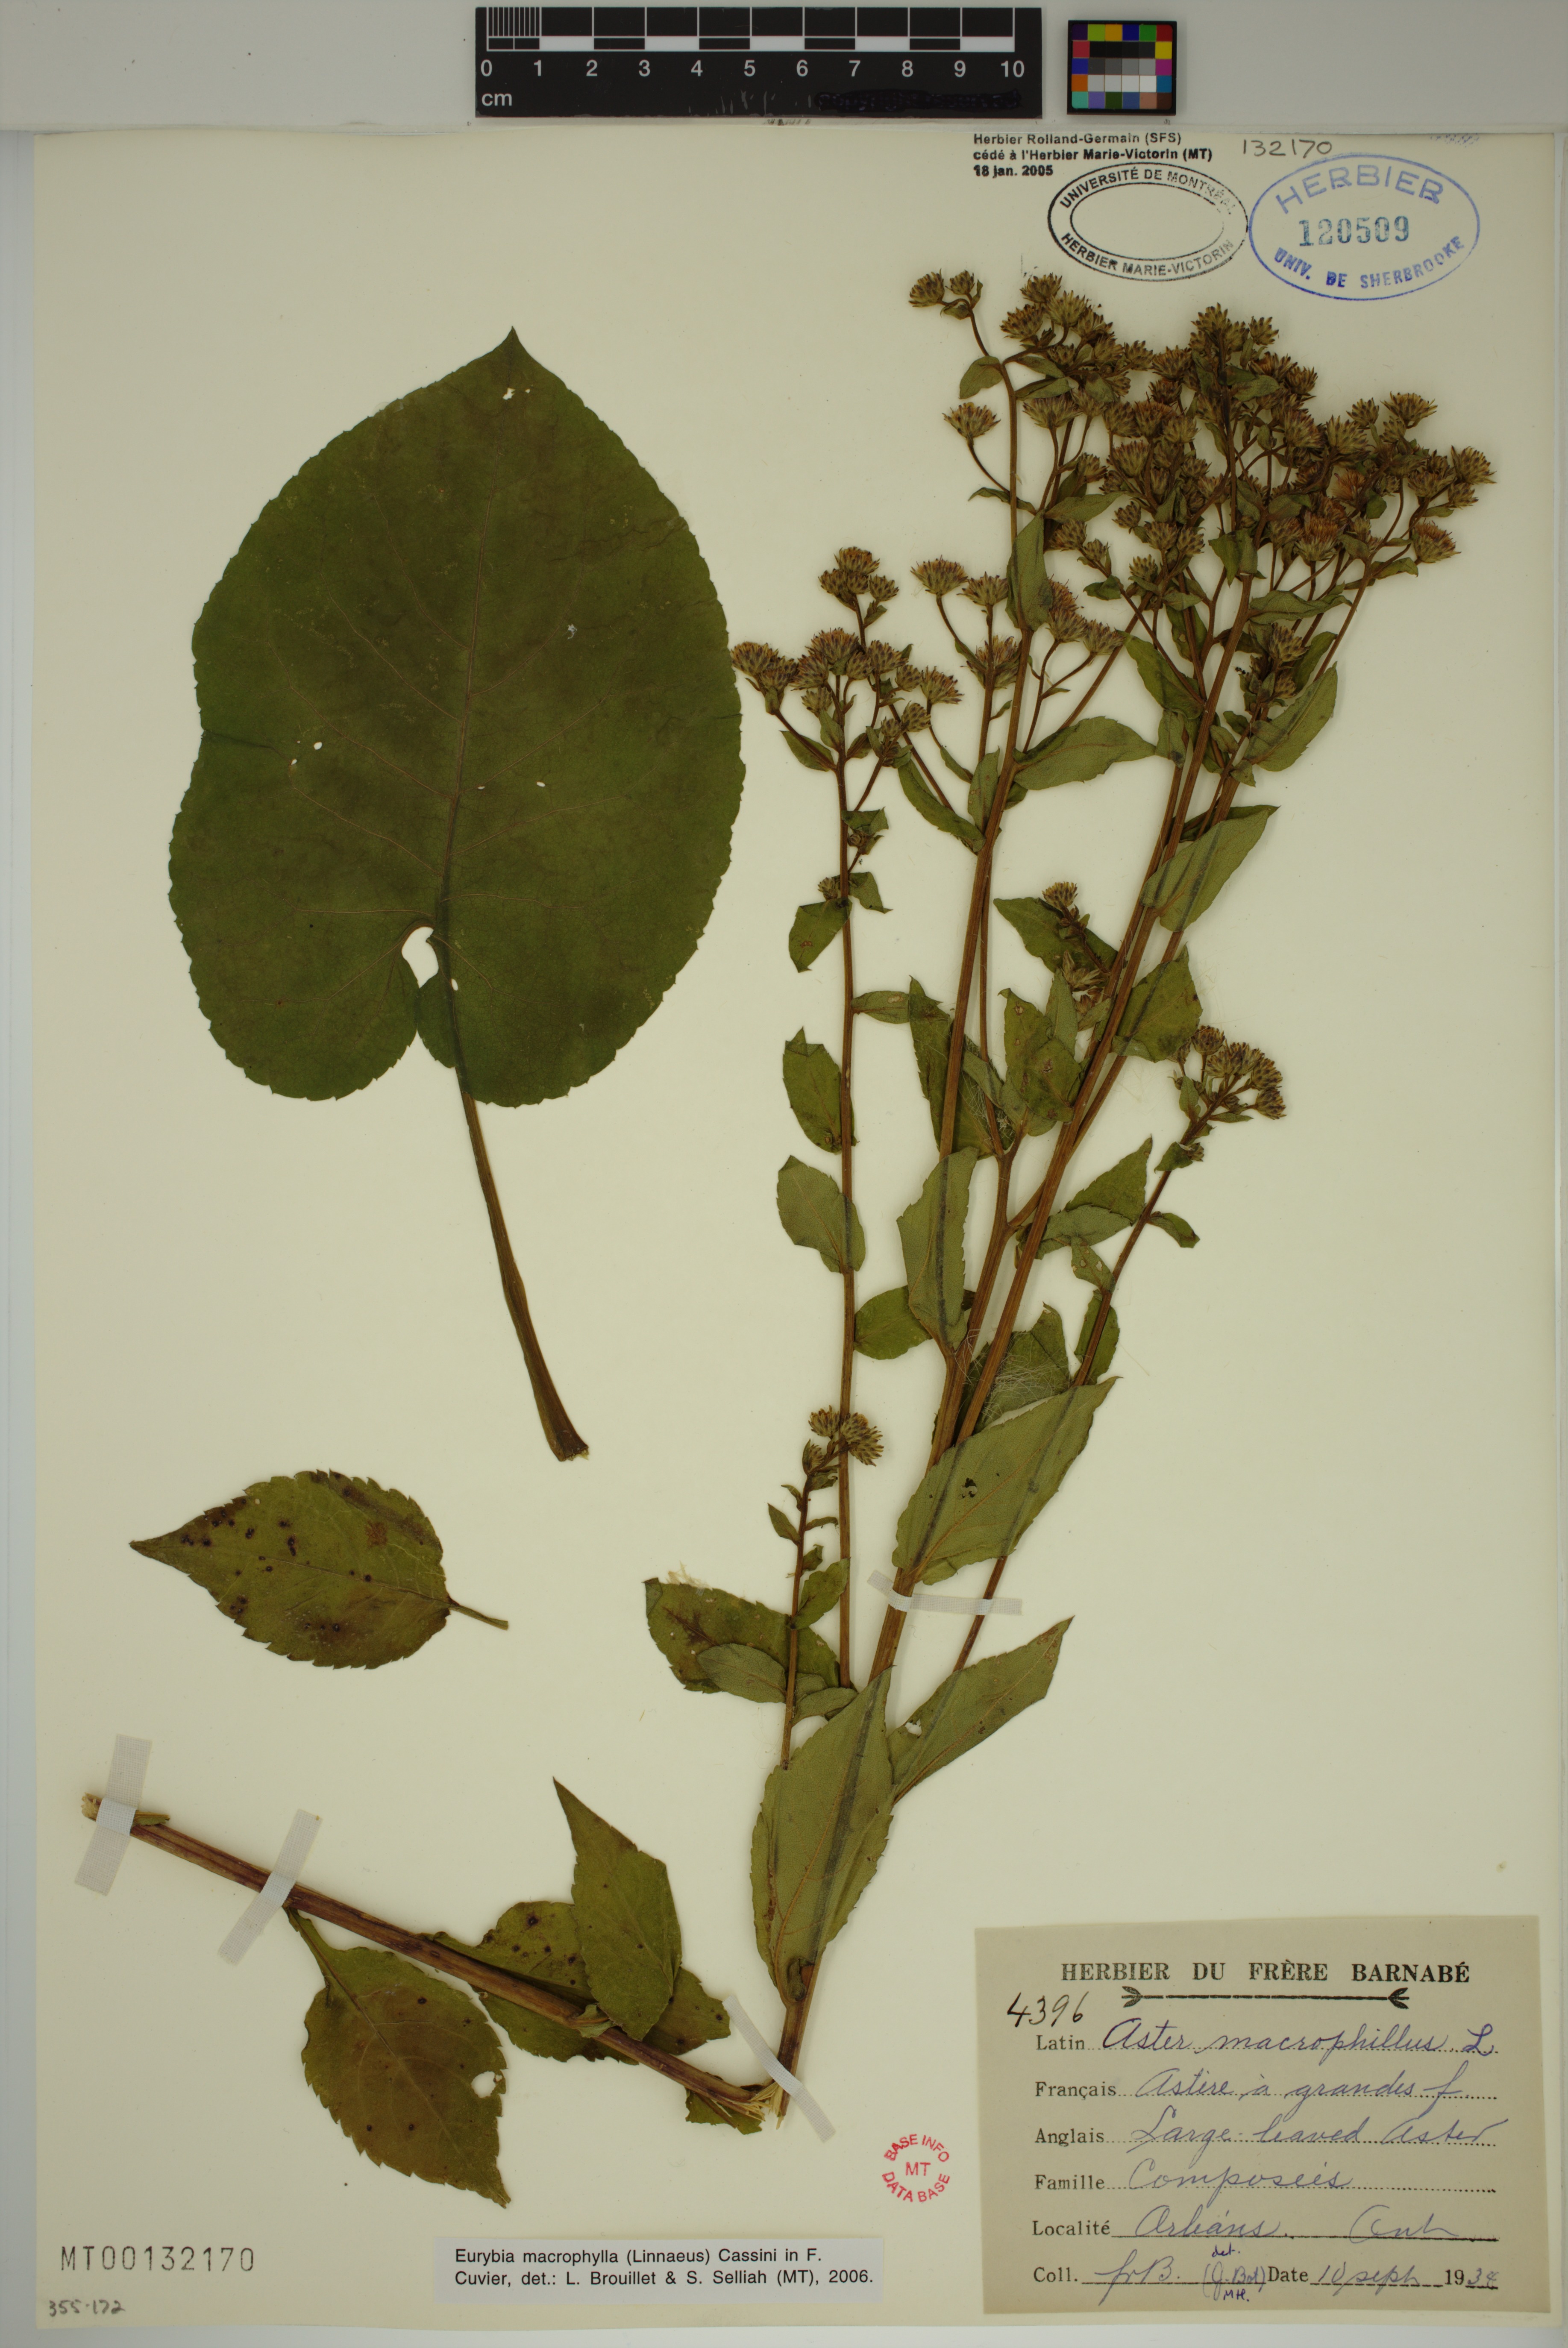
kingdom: Plantae
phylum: Tracheophyta
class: Magnoliopsida
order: Asterales
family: Asteraceae
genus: Eurybia
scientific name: Eurybia macrophylla
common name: Big-leaved aster
